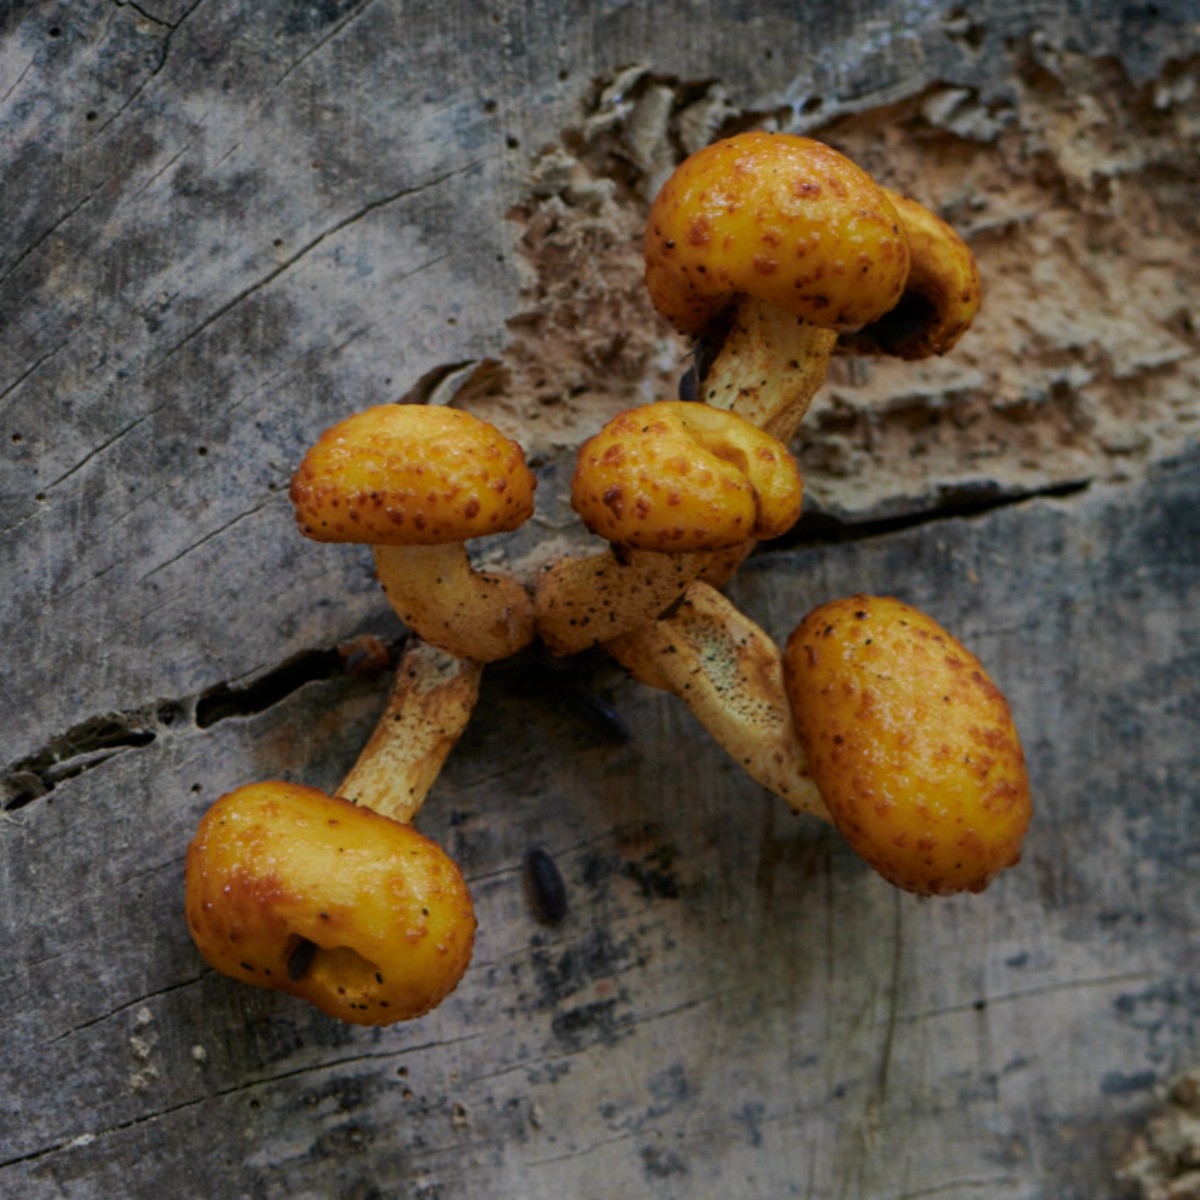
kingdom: Fungi
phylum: Basidiomycota
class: Agaricomycetes
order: Agaricales
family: Strophariaceae
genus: Pholiota
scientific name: Pholiota adiposa
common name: højtsiddende skælhat
